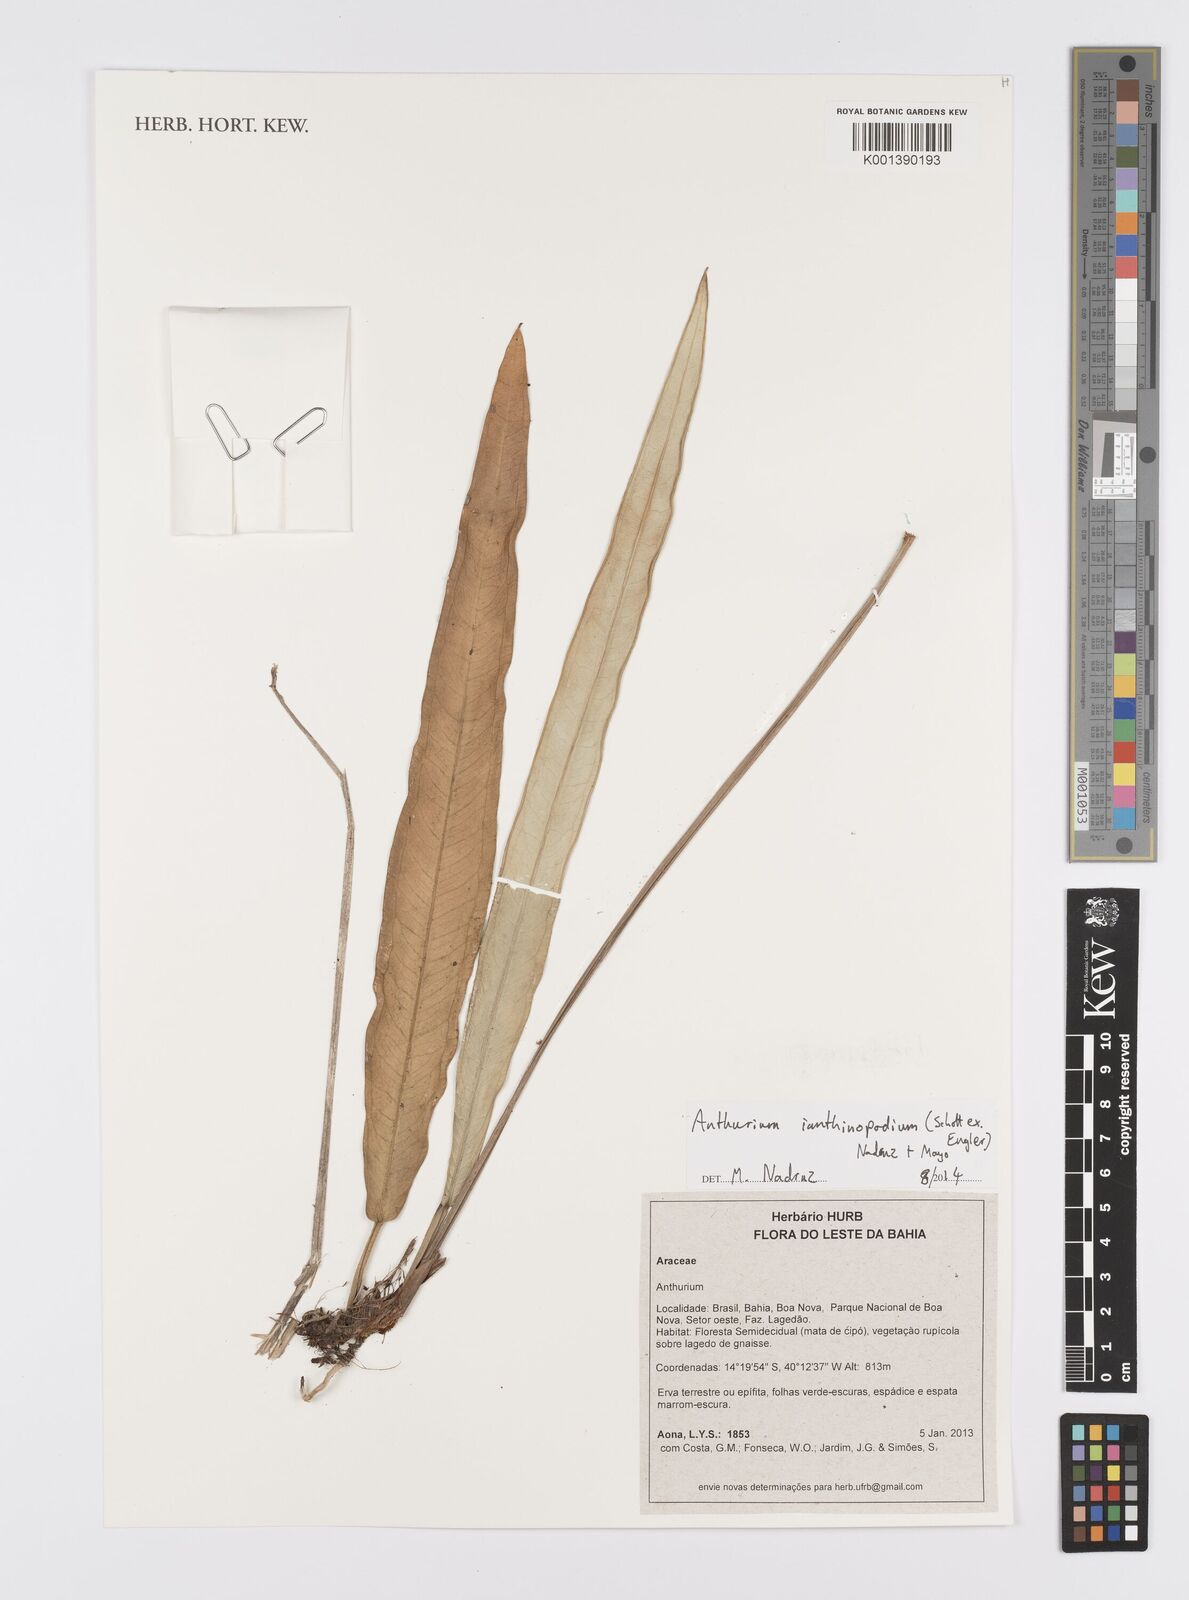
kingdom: Plantae
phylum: Tracheophyta
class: Liliopsida
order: Alismatales
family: Araceae
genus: Anthurium
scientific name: Anthurium ianthinopodum
